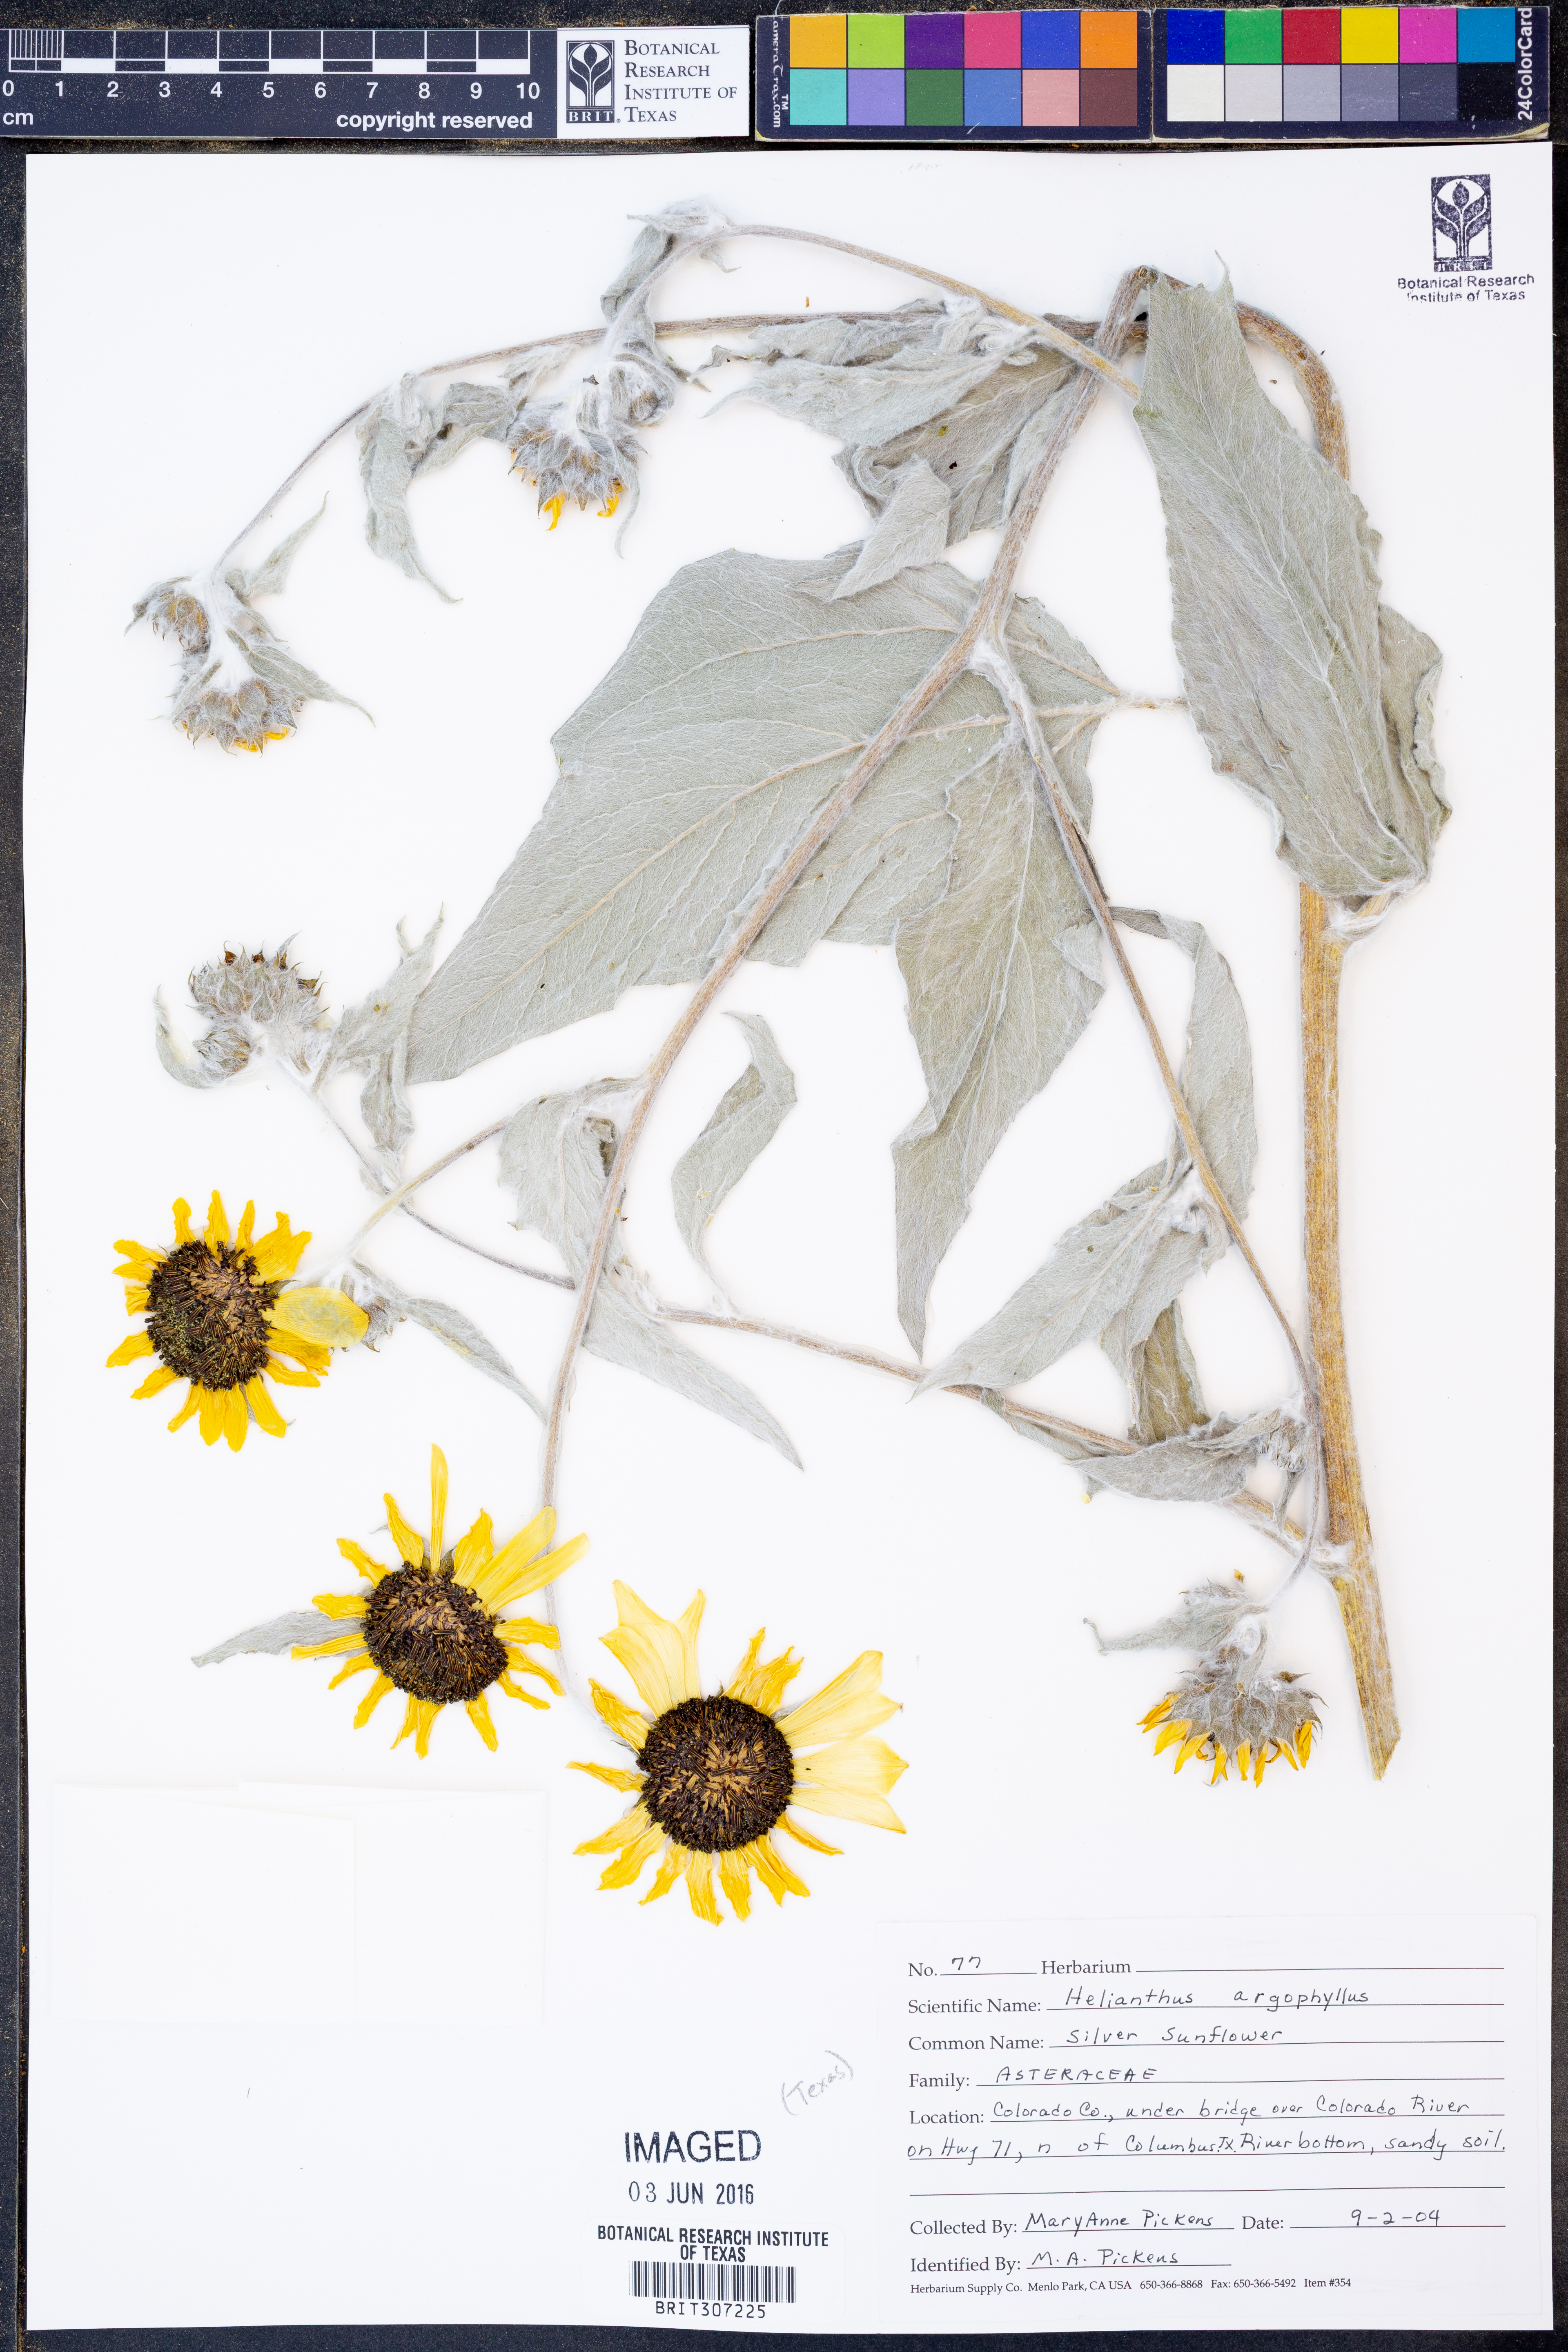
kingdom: Plantae
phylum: Tracheophyta
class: Magnoliopsida
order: Asterales
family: Asteraceae
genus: Helianthus
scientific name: Helianthus argophyllus
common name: Silverleaf sunflower
